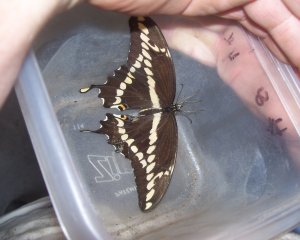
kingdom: Animalia
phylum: Arthropoda
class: Insecta
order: Lepidoptera
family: Papilionidae
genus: Papilio
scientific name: Papilio cresphontes
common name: Eastern Giant Swallowtail
